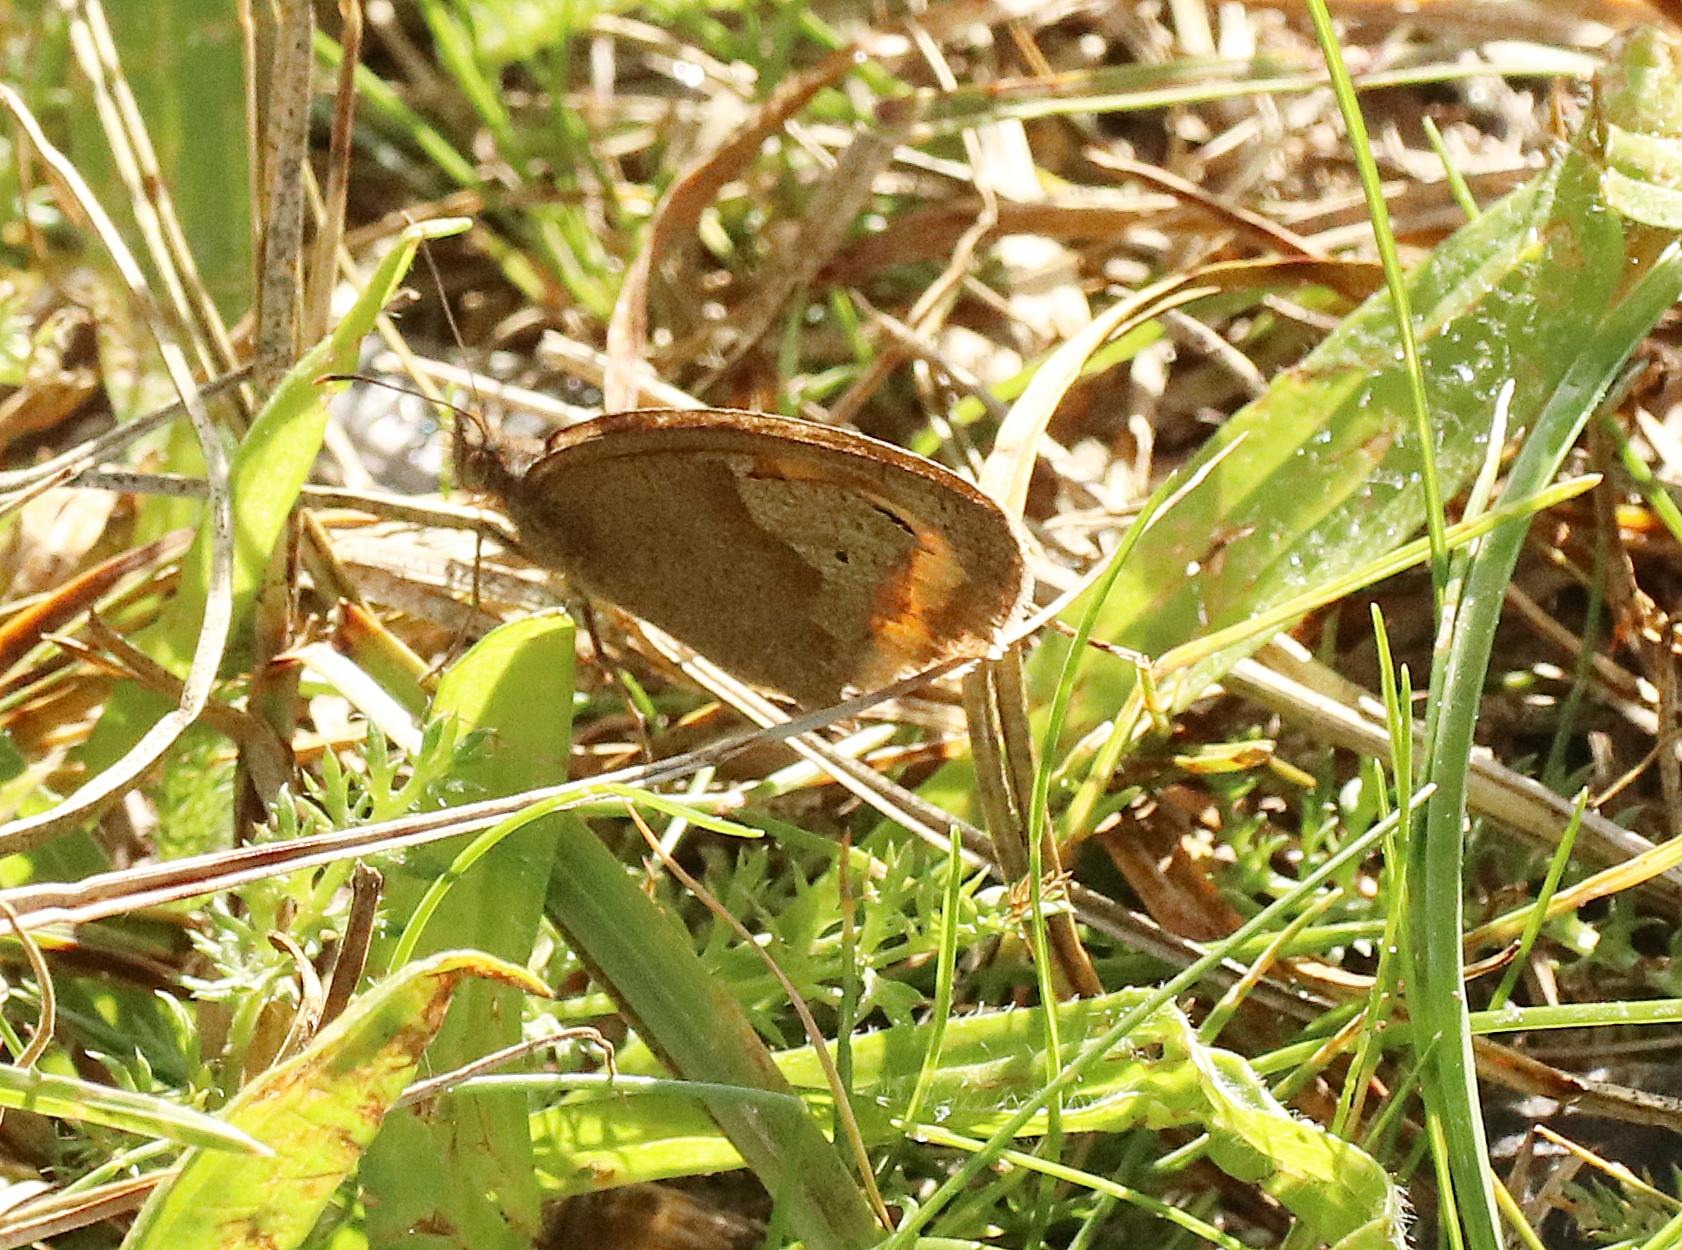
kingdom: Animalia
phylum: Arthropoda
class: Insecta
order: Lepidoptera
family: Nymphalidae
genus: Maniola
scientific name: Maniola jurtina
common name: Græsrandøje
